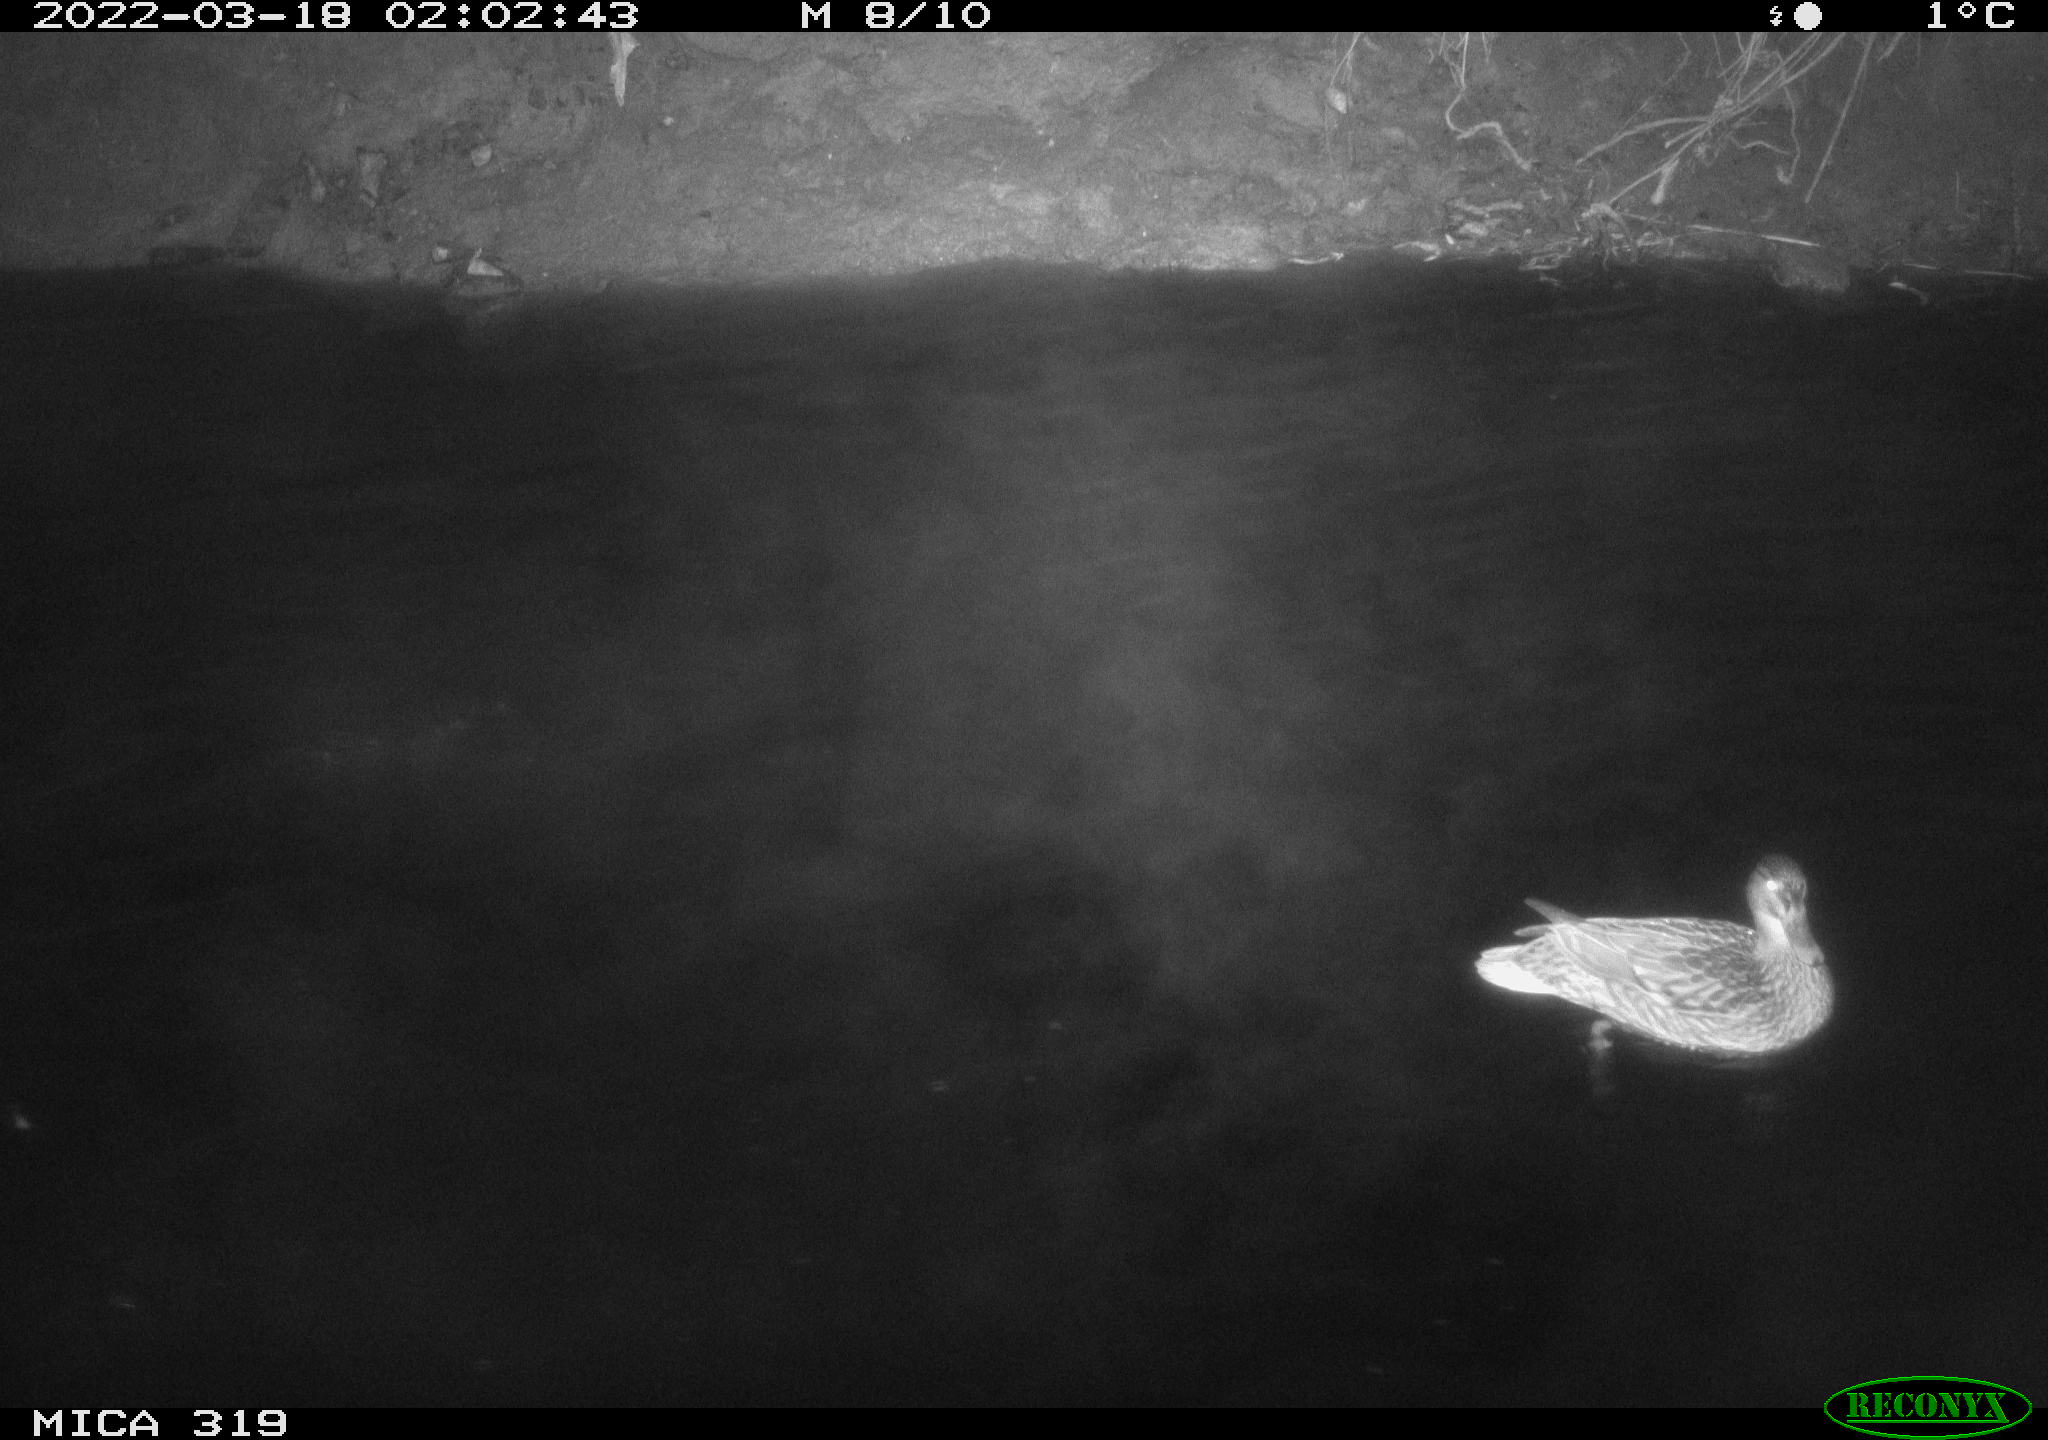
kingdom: Animalia
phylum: Chordata
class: Aves
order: Anseriformes
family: Anatidae
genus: Anas
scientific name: Anas platyrhynchos
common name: Mallard
